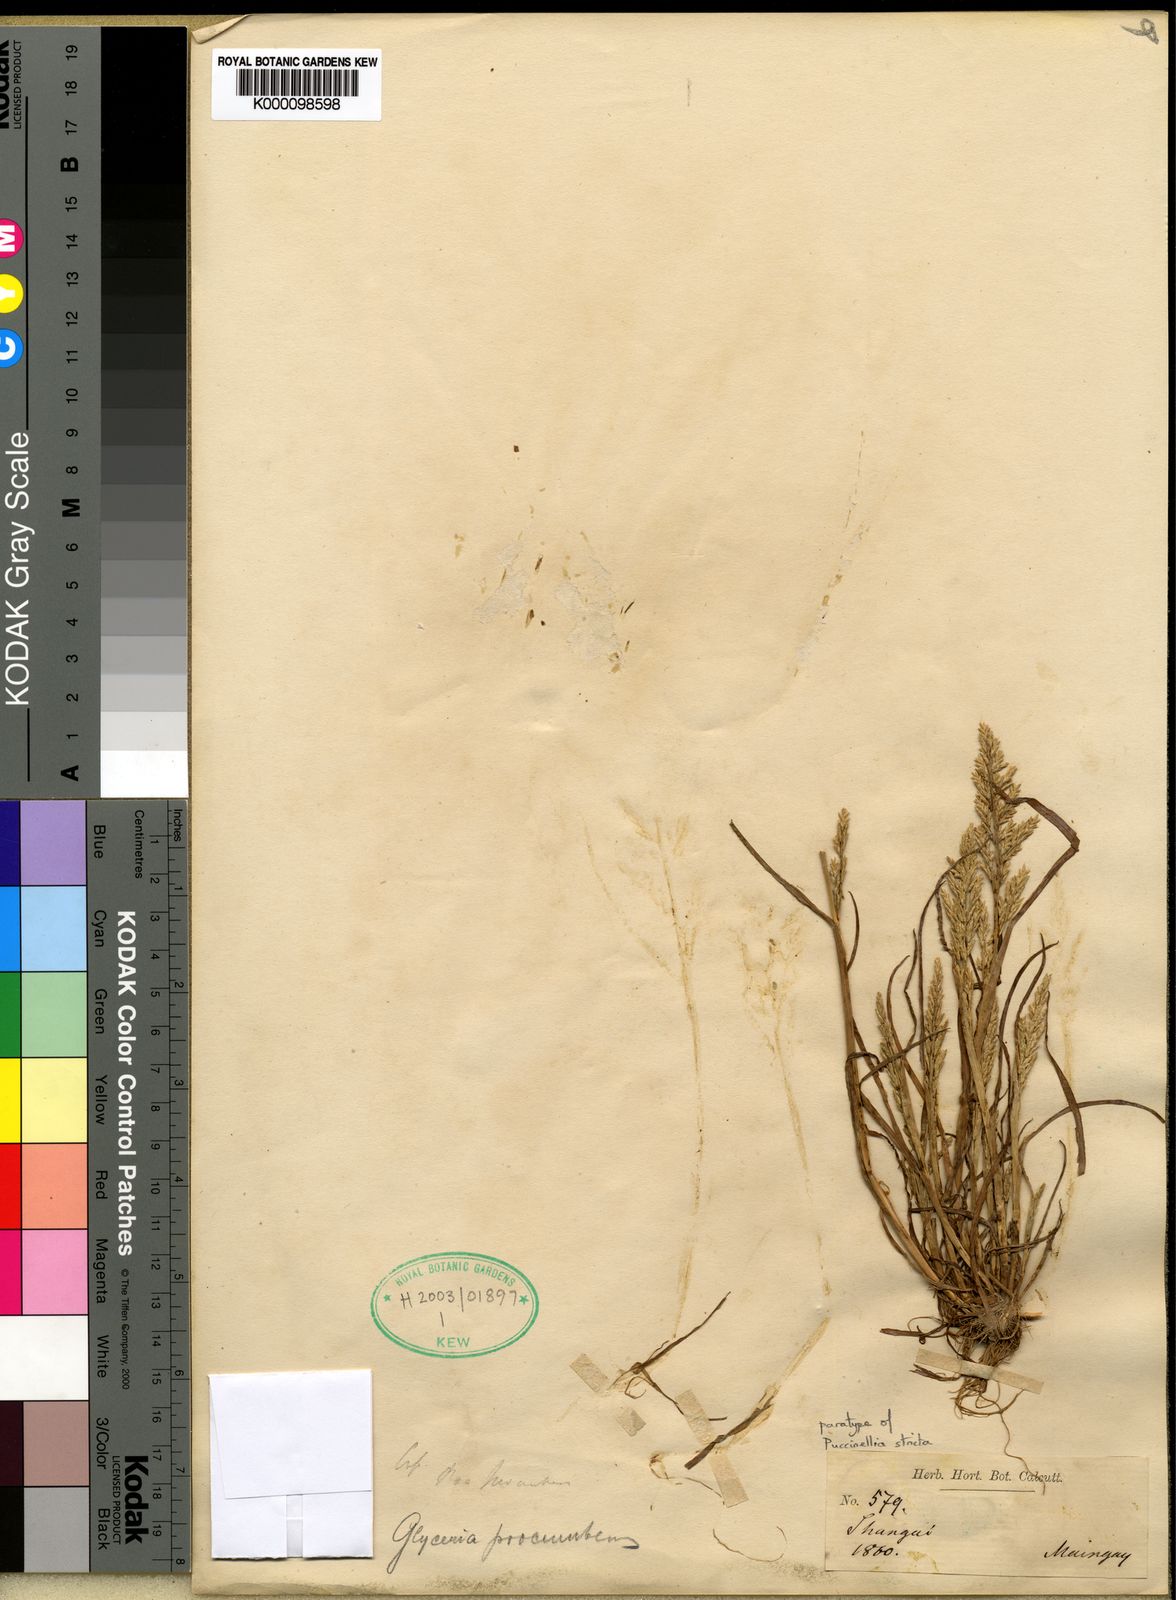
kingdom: Plantae
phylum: Tracheophyta
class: Liliopsida
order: Poales
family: Poaceae
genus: Sclerochloa
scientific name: Sclerochloa kengiana
